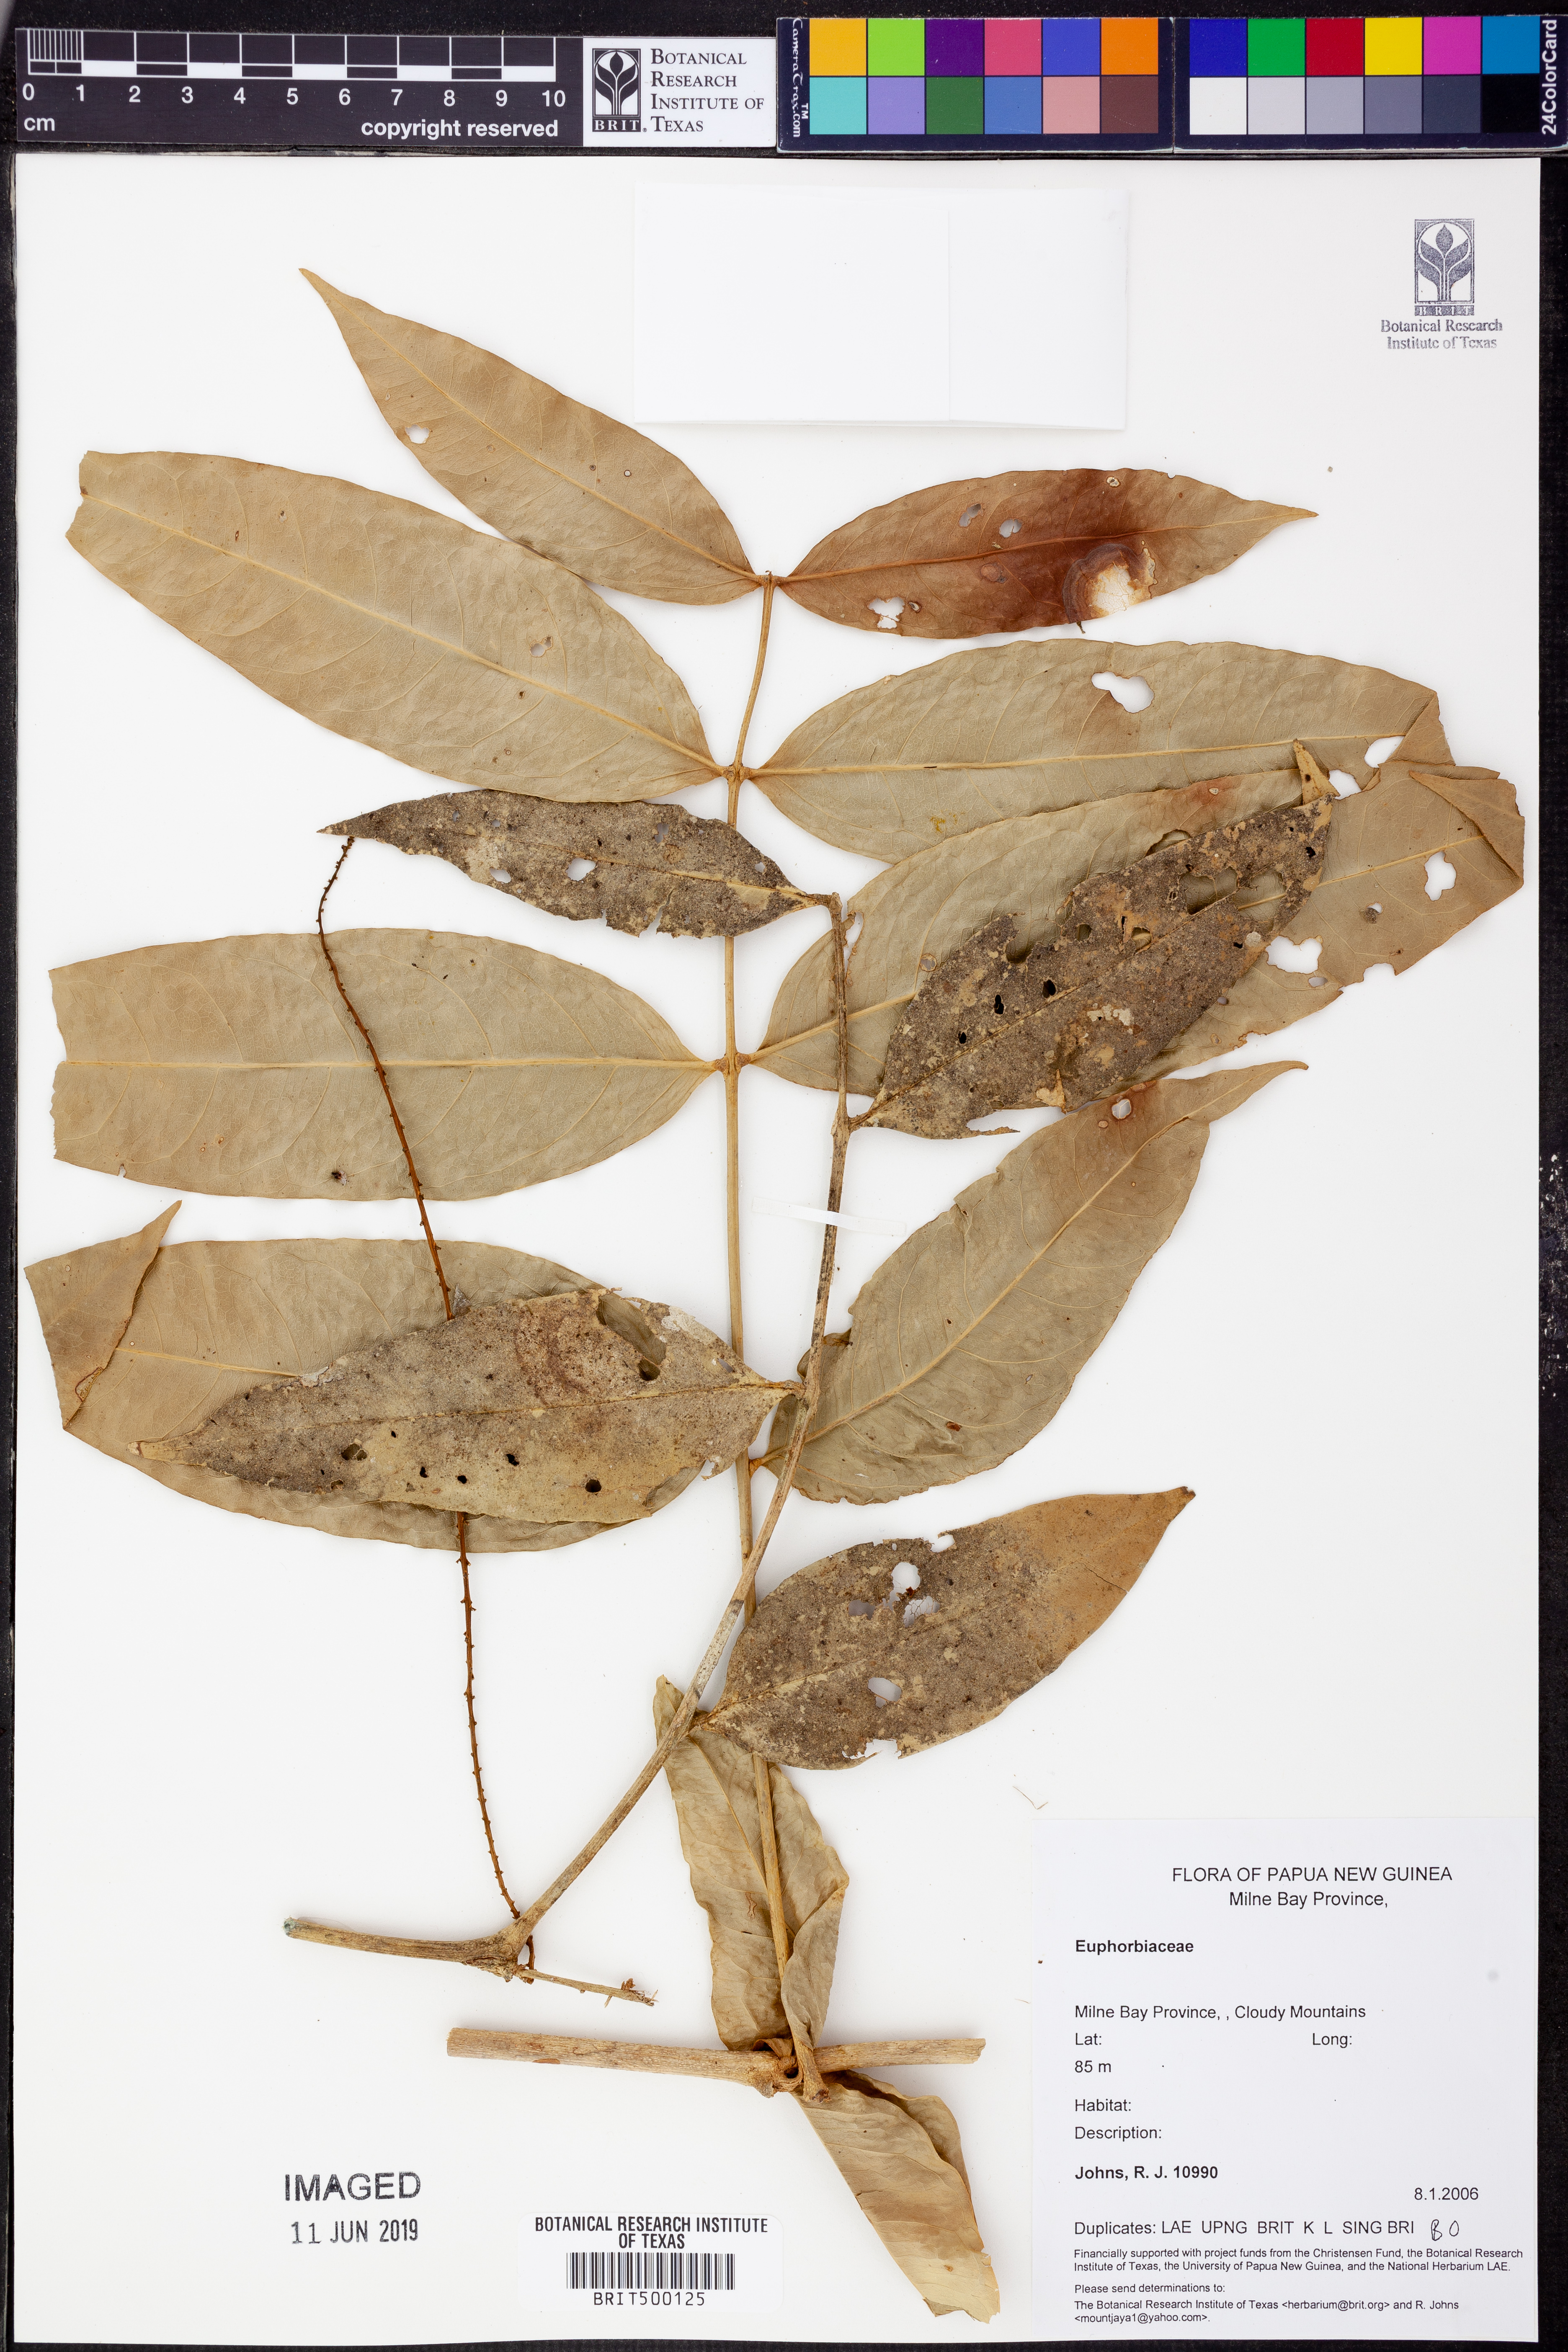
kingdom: Plantae
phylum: Tracheophyta
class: Magnoliopsida
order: Malpighiales
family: Euphorbiaceae
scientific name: Euphorbiaceae
